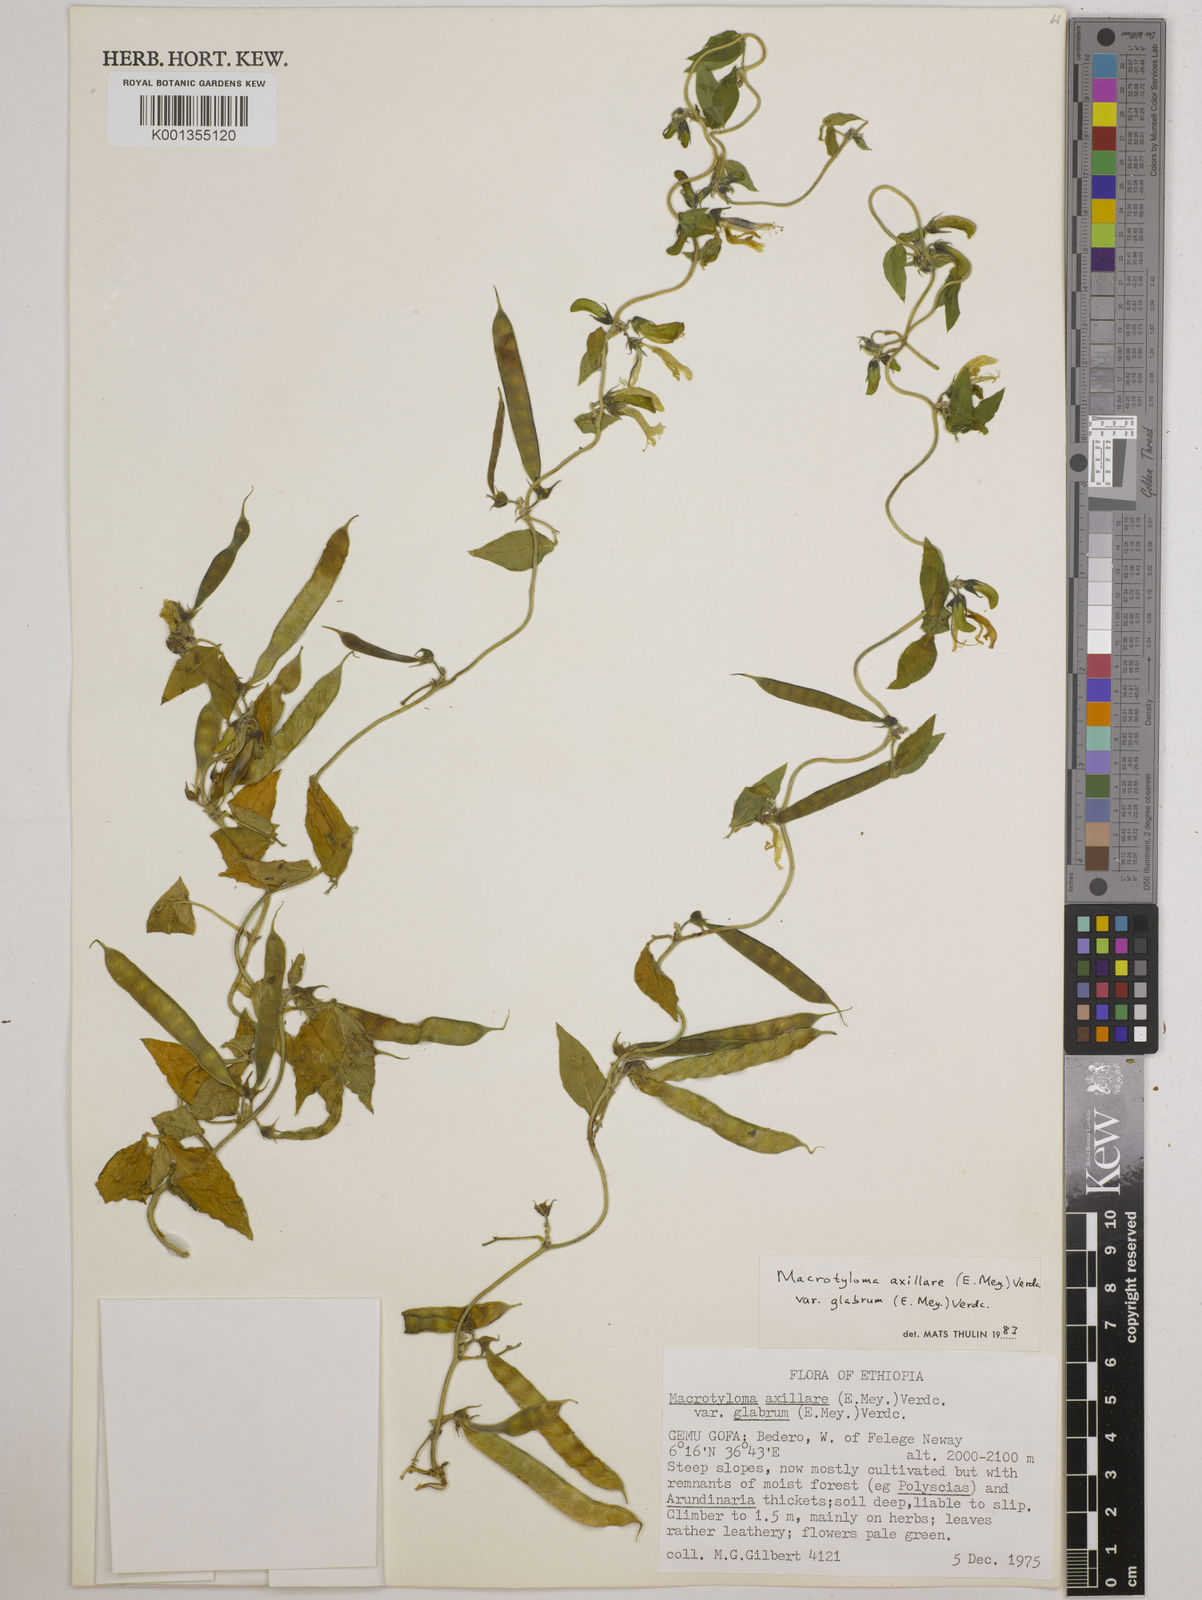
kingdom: Plantae
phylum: Tracheophyta
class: Magnoliopsida
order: Fabales
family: Fabaceae
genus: Macrotyloma
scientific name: Macrotyloma
